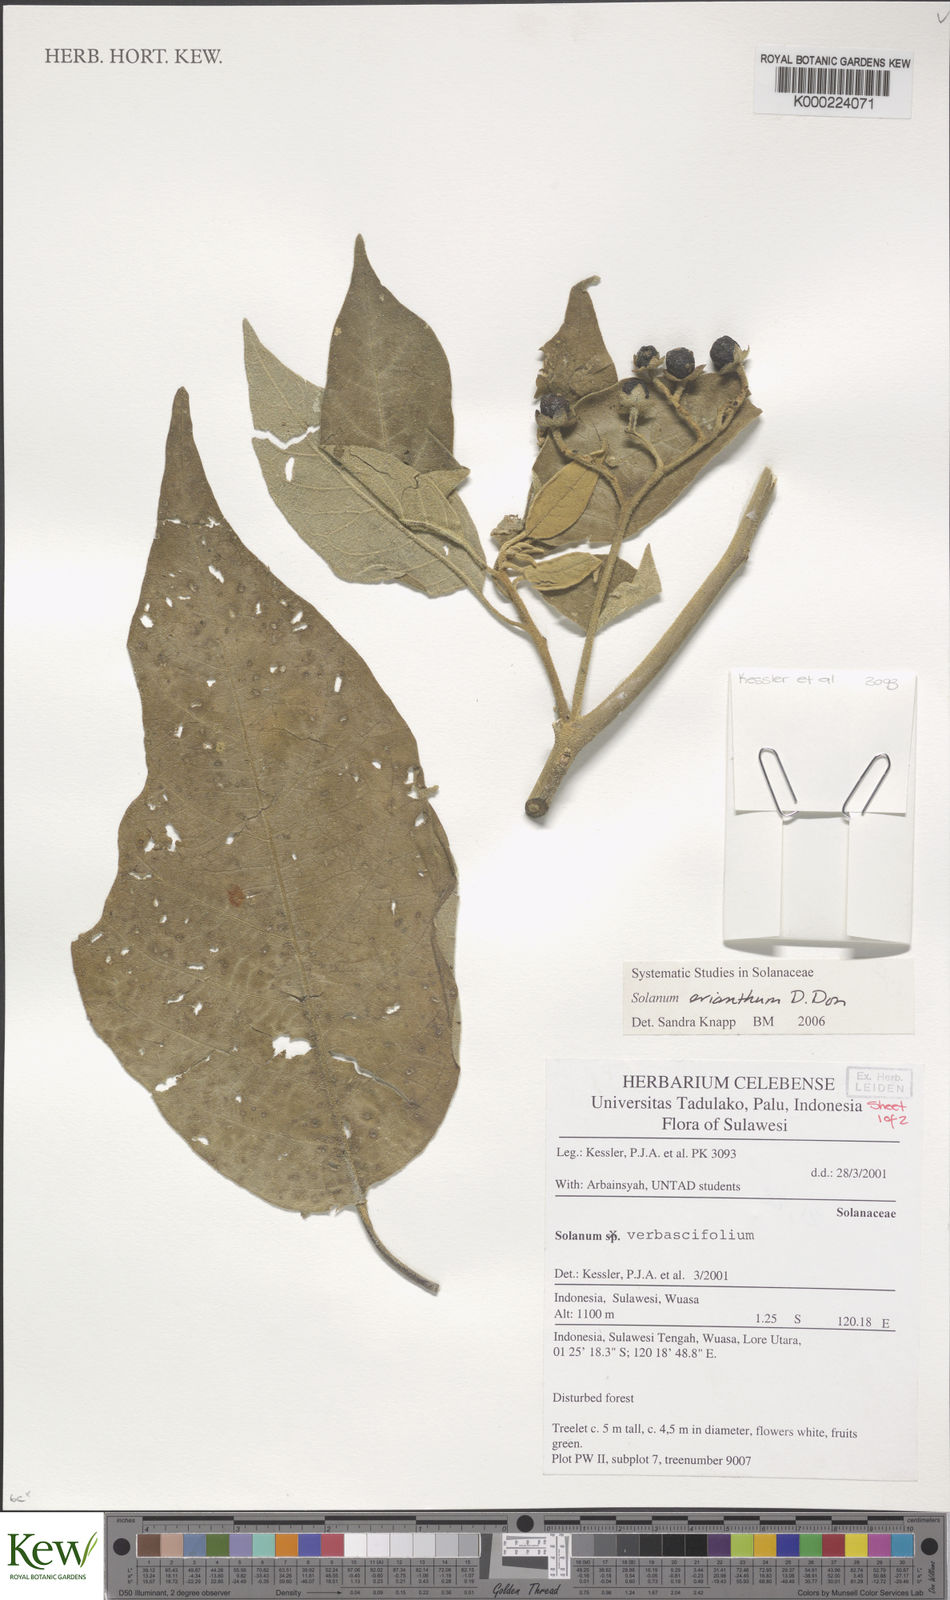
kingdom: Plantae
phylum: Tracheophyta
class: Magnoliopsida
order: Solanales
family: Solanaceae
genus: Solanum
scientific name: Solanum erianthum
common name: Tobacco-tree
